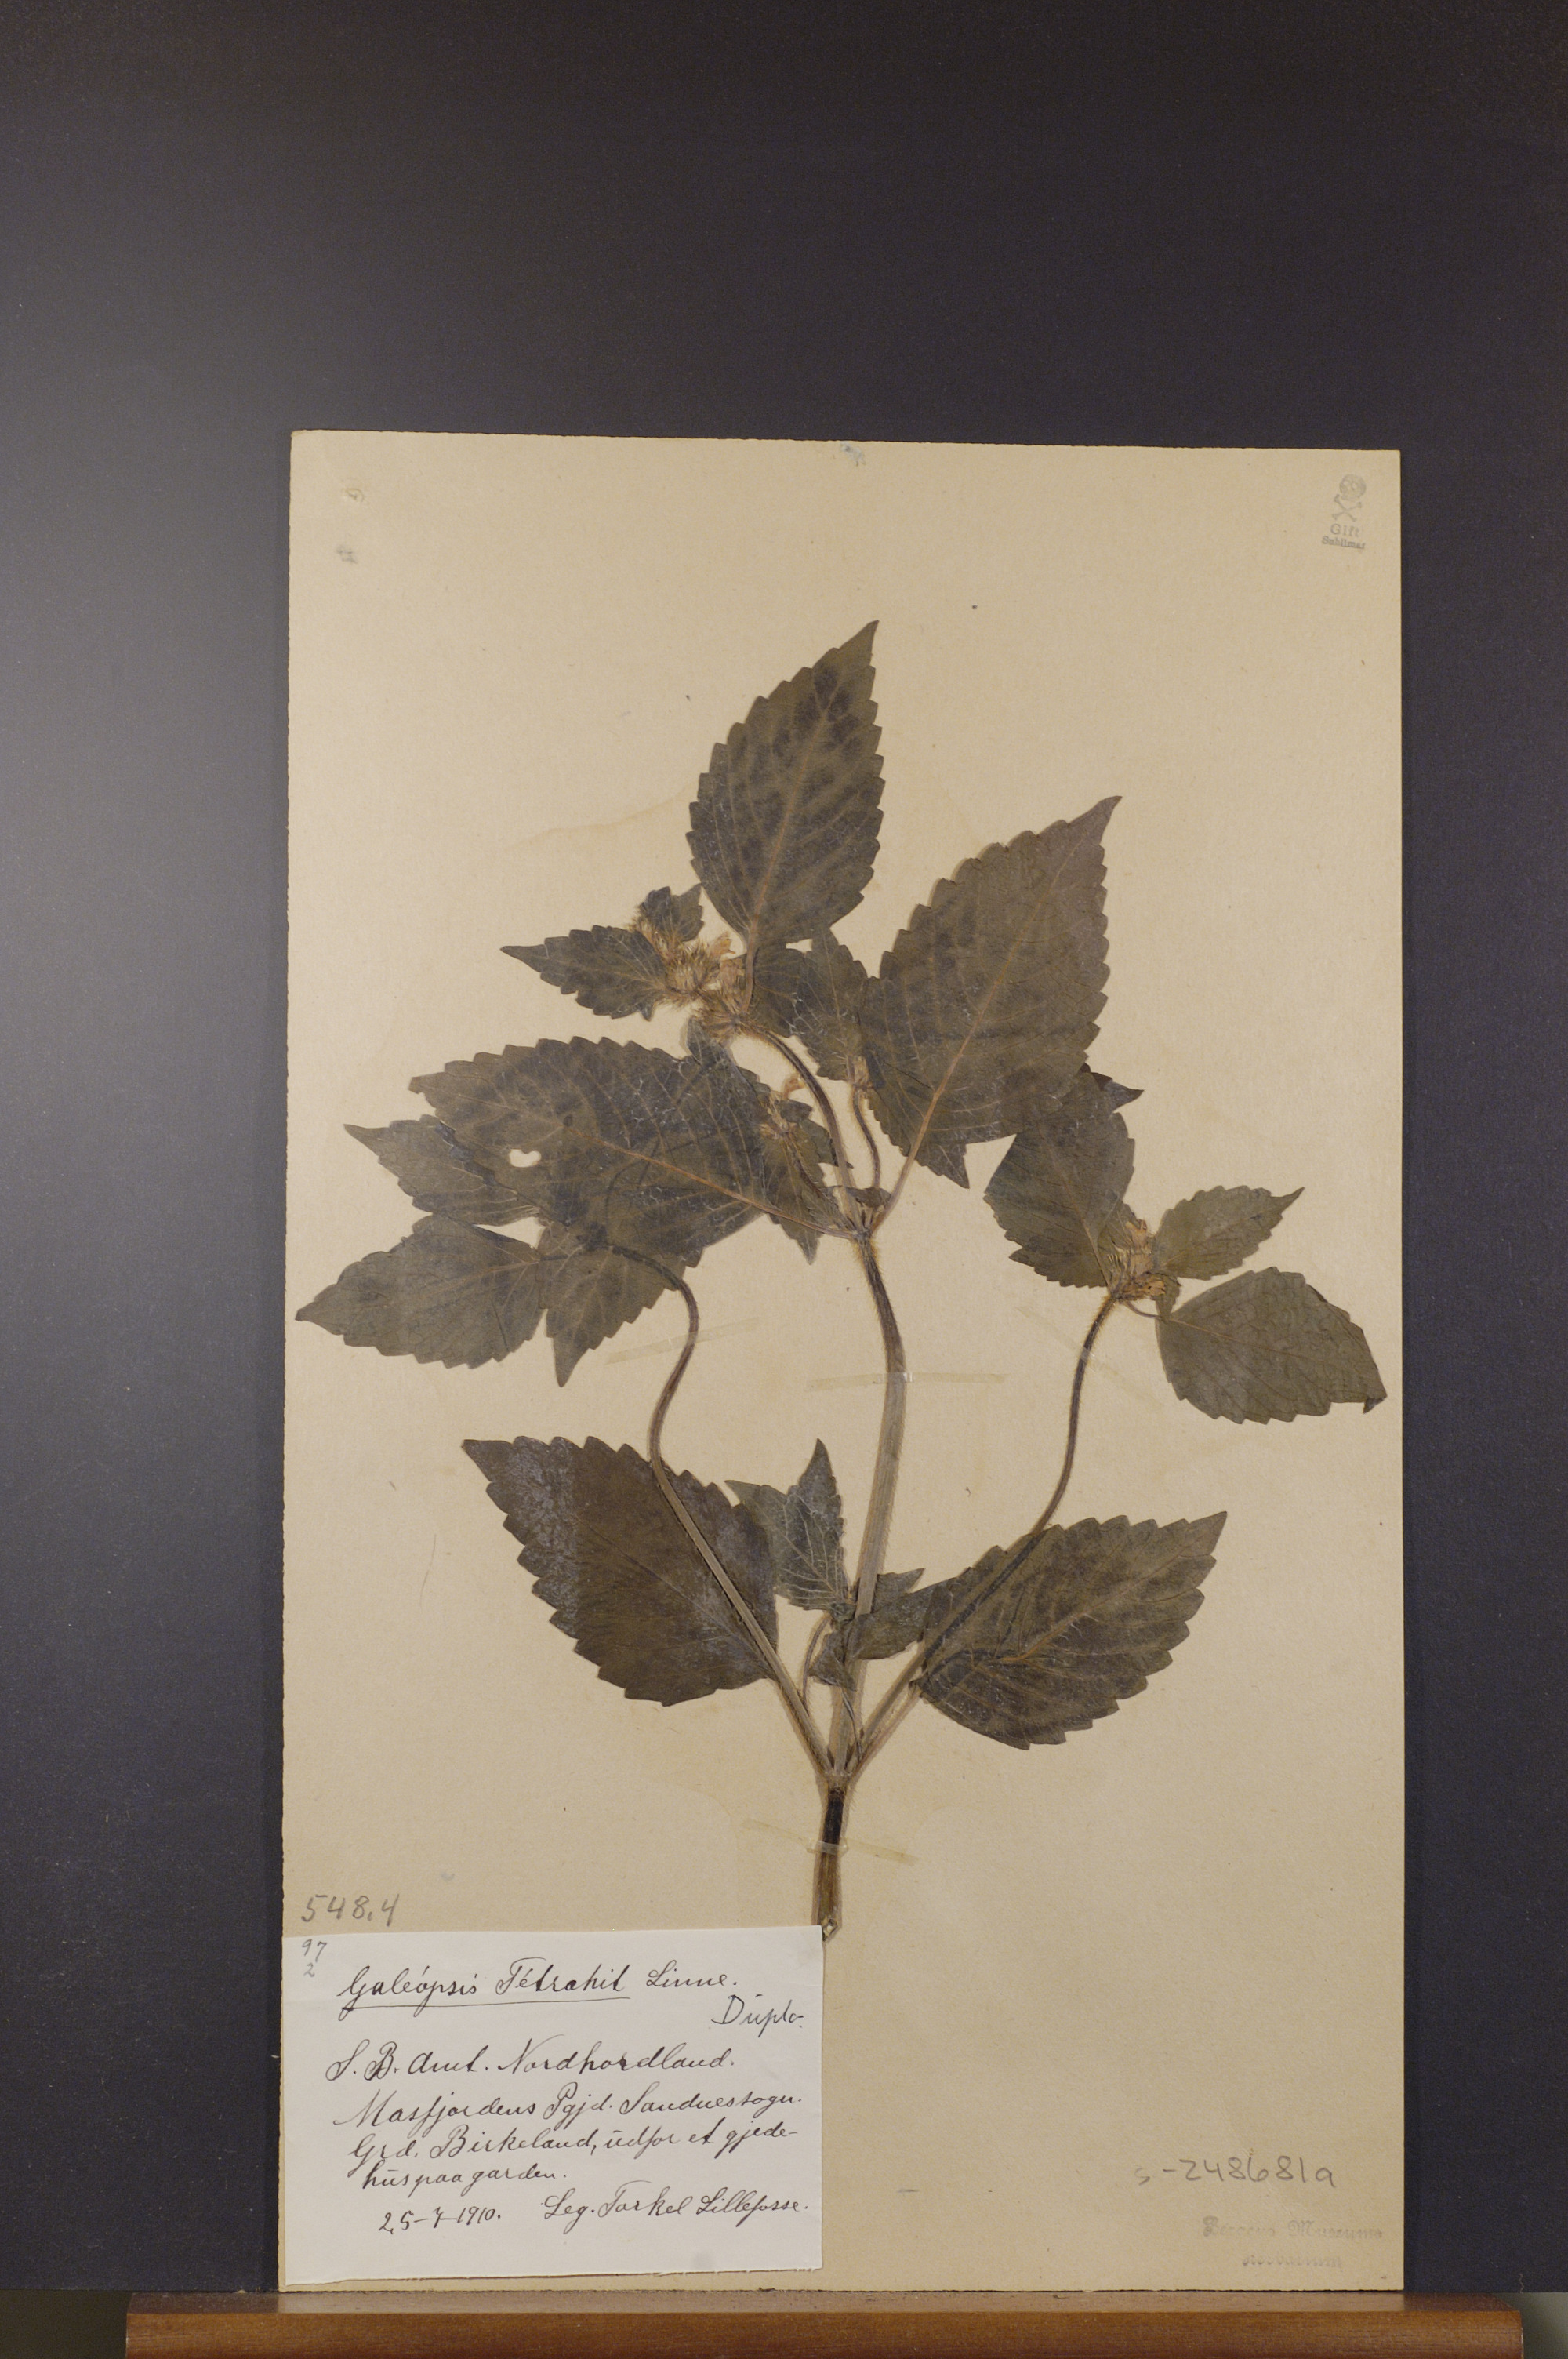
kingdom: Plantae
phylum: Tracheophyta
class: Magnoliopsida
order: Lamiales
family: Lamiaceae
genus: Galeopsis
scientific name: Galeopsis tetrahit
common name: Common hemp-nettle
